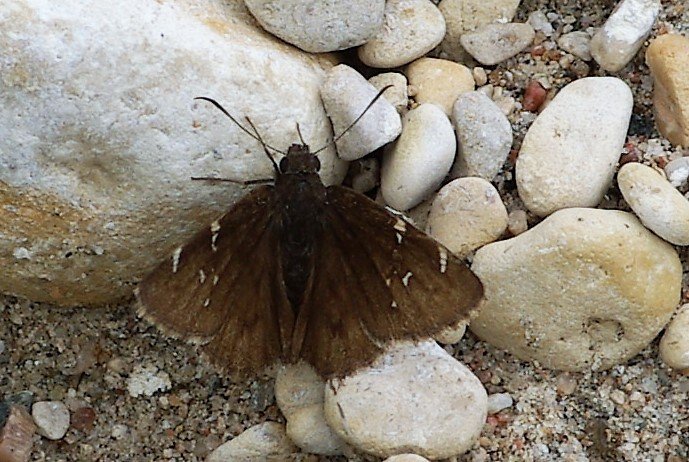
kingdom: Animalia
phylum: Arthropoda
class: Insecta
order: Lepidoptera
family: Hesperiidae
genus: Autochton
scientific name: Autochton
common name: Northern Cloudywing
